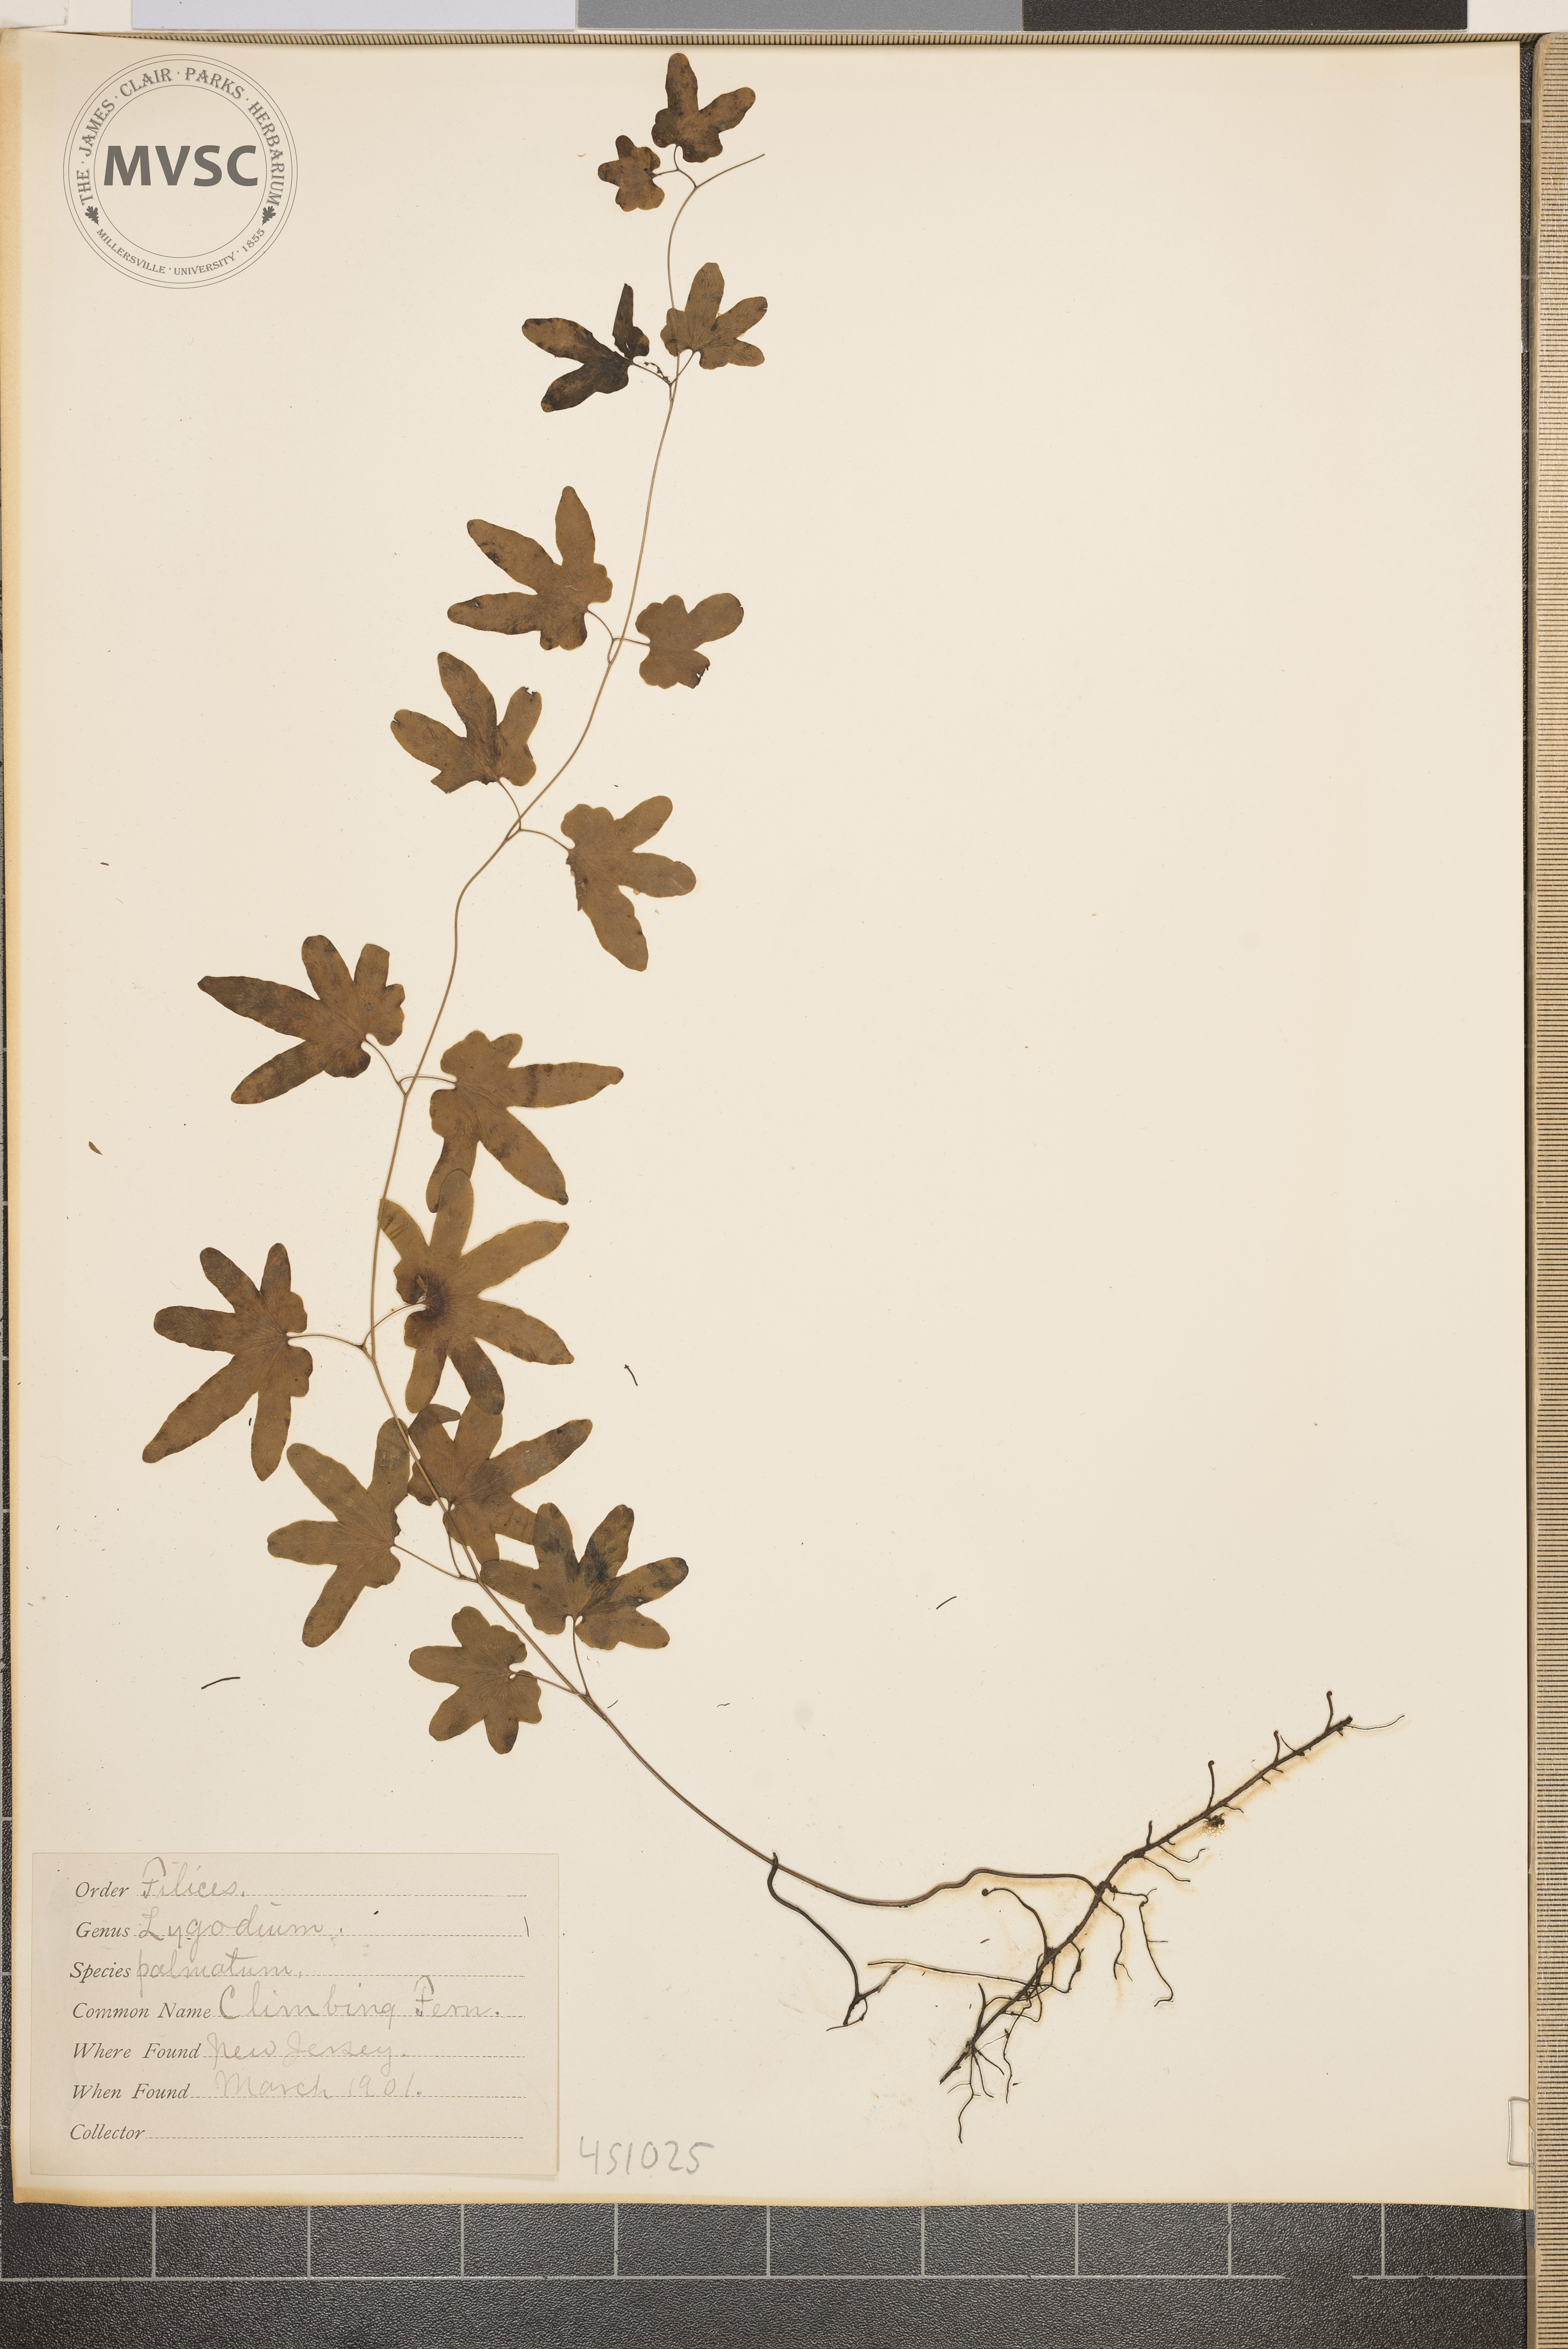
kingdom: Plantae
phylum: Tracheophyta
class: Polypodiopsida
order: Schizaeales
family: Lygodiaceae
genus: Lygodium
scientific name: Lygodium palmatum
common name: Climbing fern
